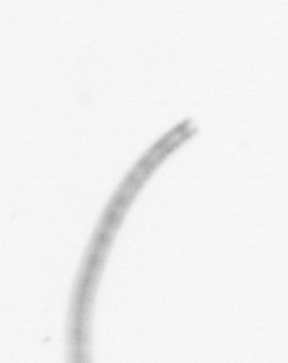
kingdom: Chromista
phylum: Ochrophyta
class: Bacillariophyceae
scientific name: Bacillariophyceae
